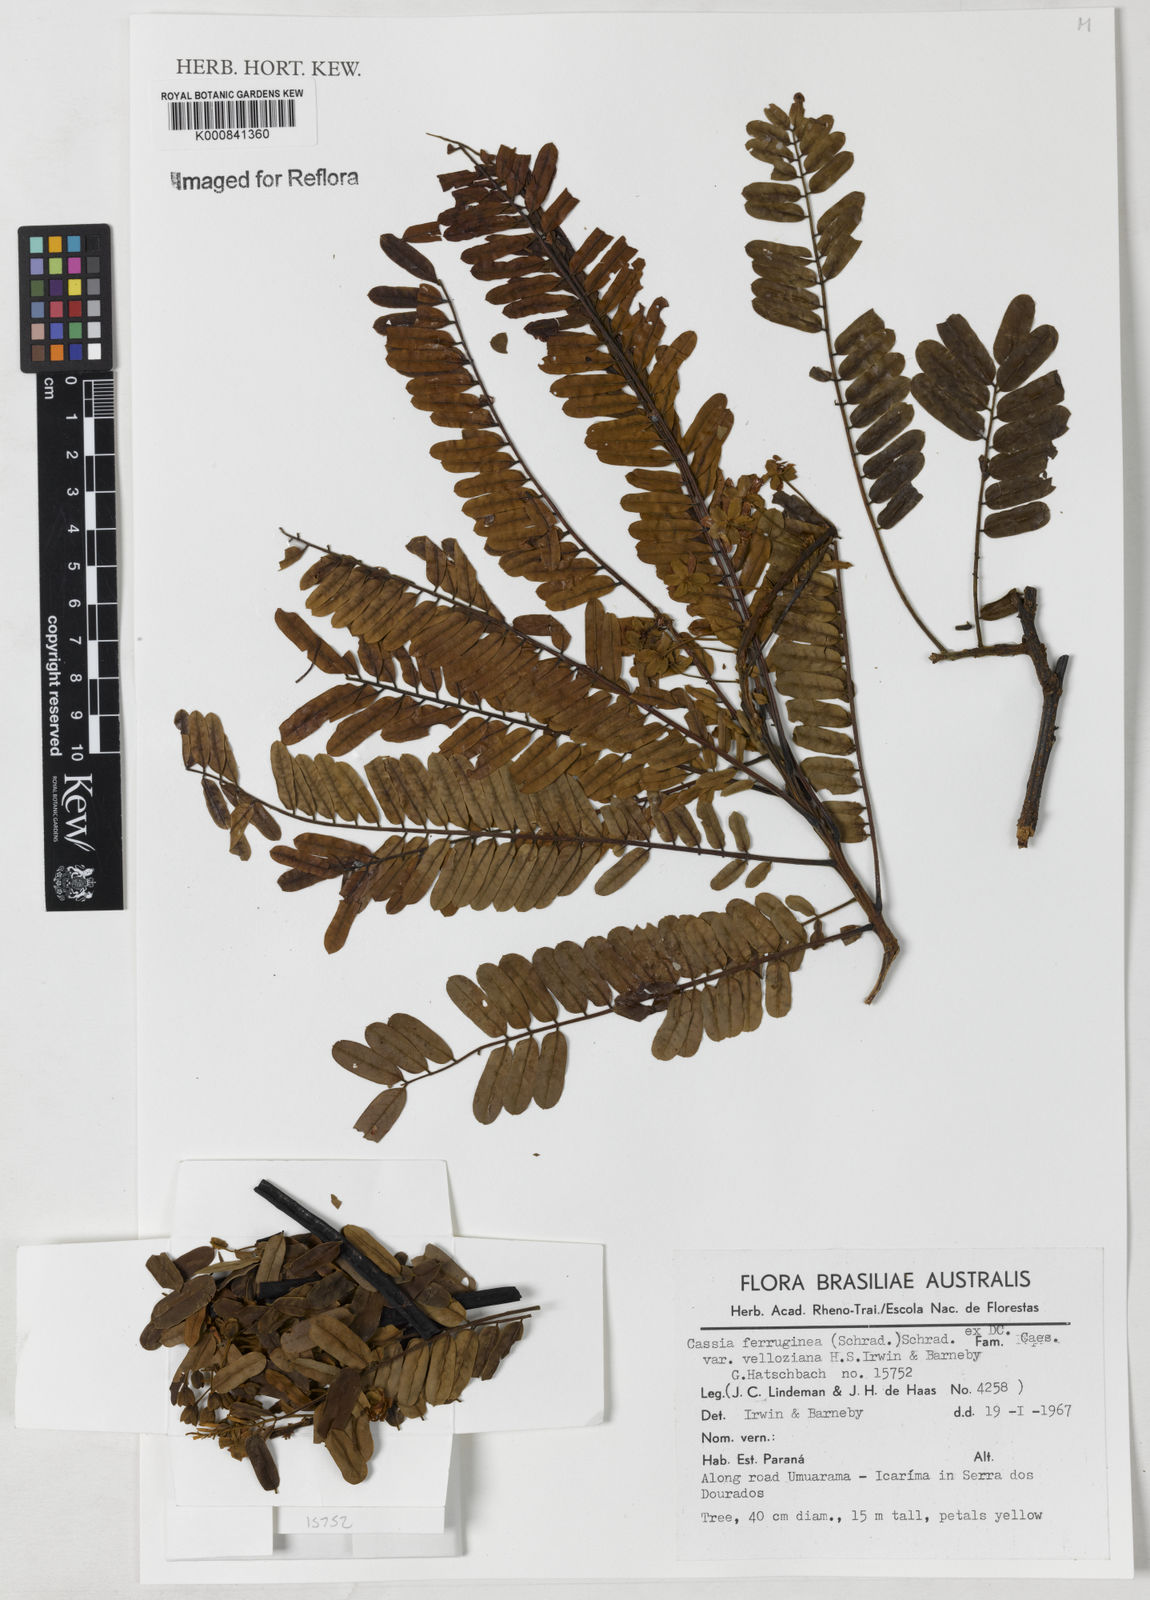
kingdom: Plantae
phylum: Tracheophyta
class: Magnoliopsida
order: Fabales
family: Fabaceae
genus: Cassia
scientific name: Cassia ferruginea
